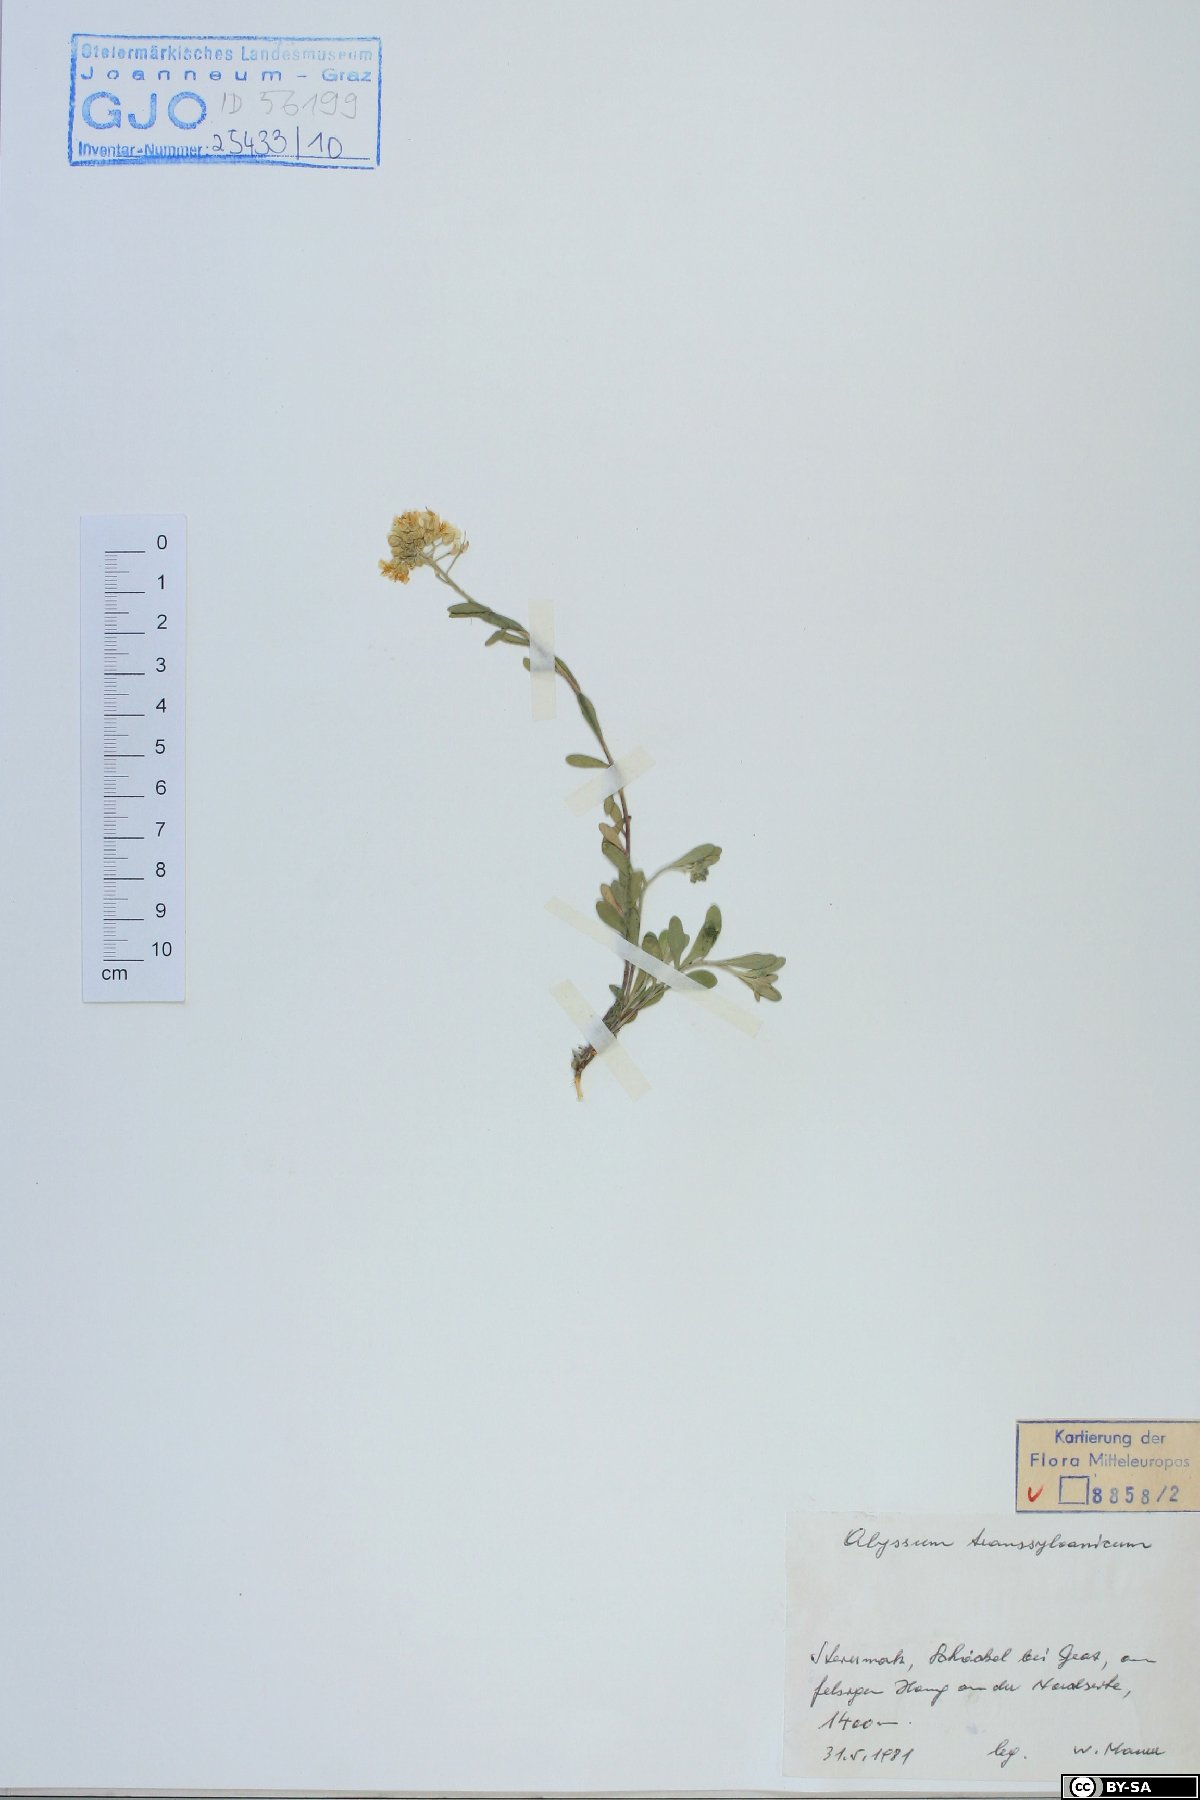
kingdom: Plantae
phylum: Tracheophyta
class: Magnoliopsida
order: Brassicales
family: Brassicaceae
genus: Alyssum
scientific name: Alyssum repens
